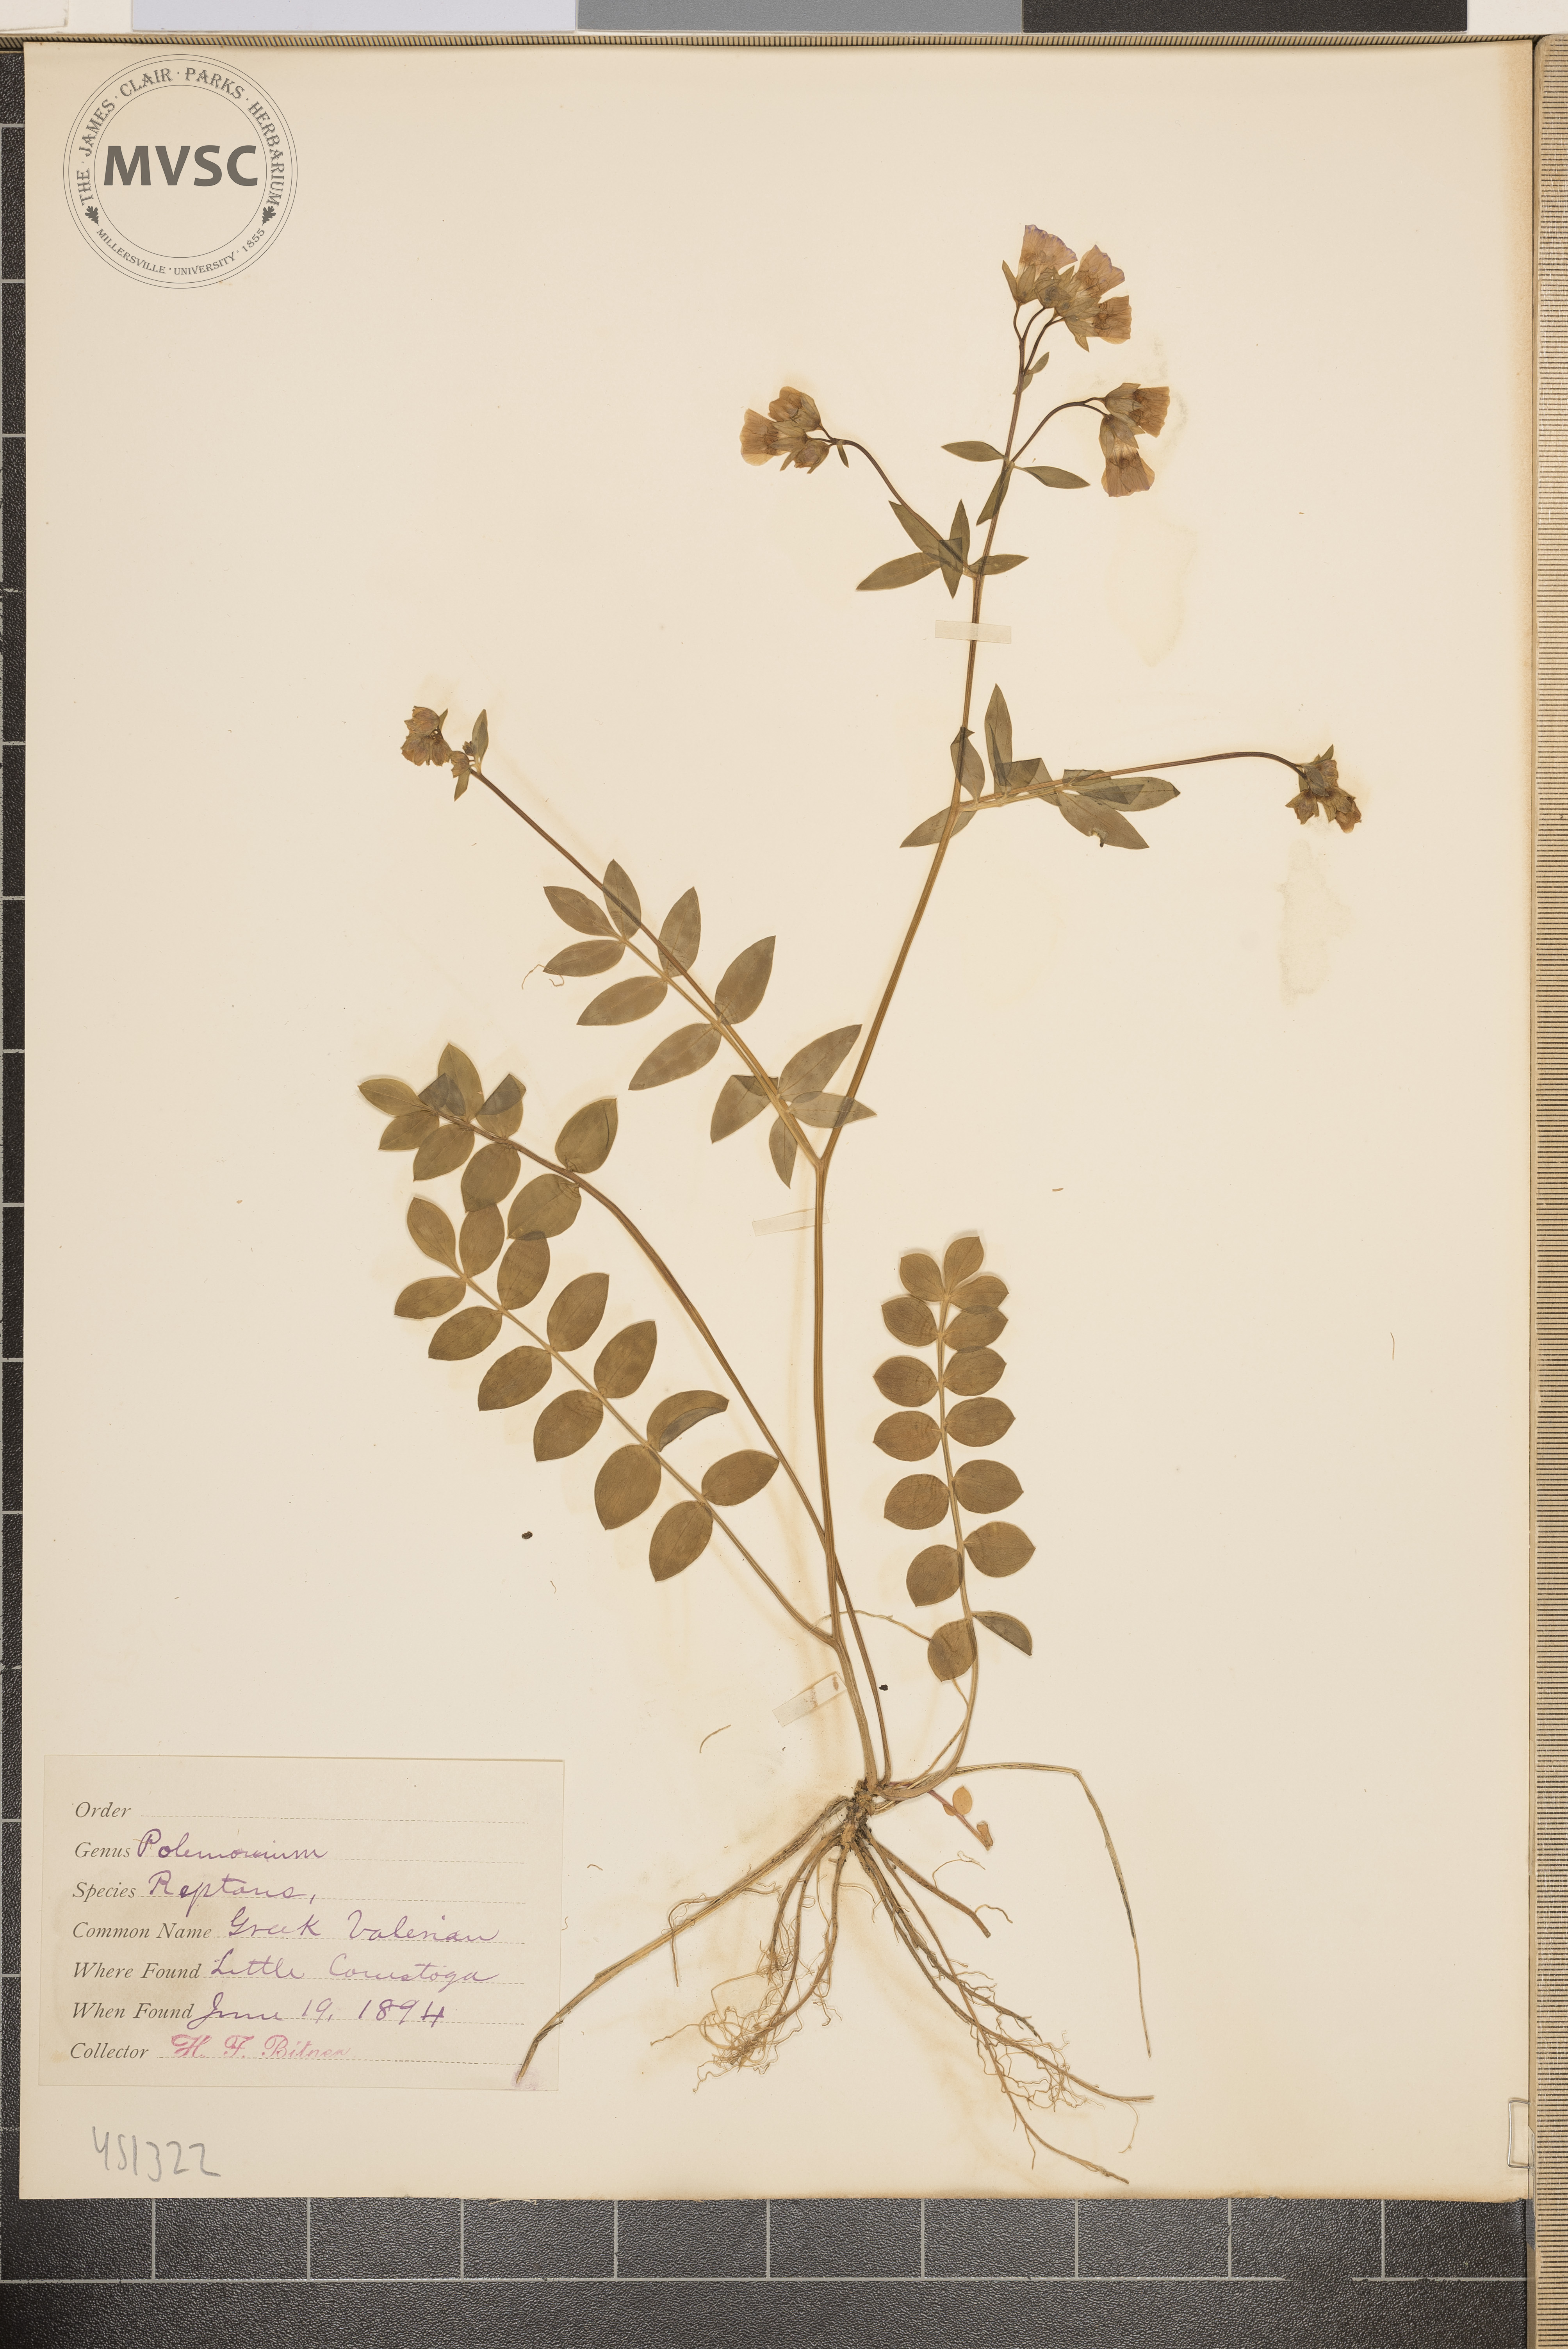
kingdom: Plantae
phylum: Tracheophyta
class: Magnoliopsida
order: Ericales
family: Polemoniaceae
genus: Polemonium
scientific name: Polemonium reptans
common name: Greek Valerian
